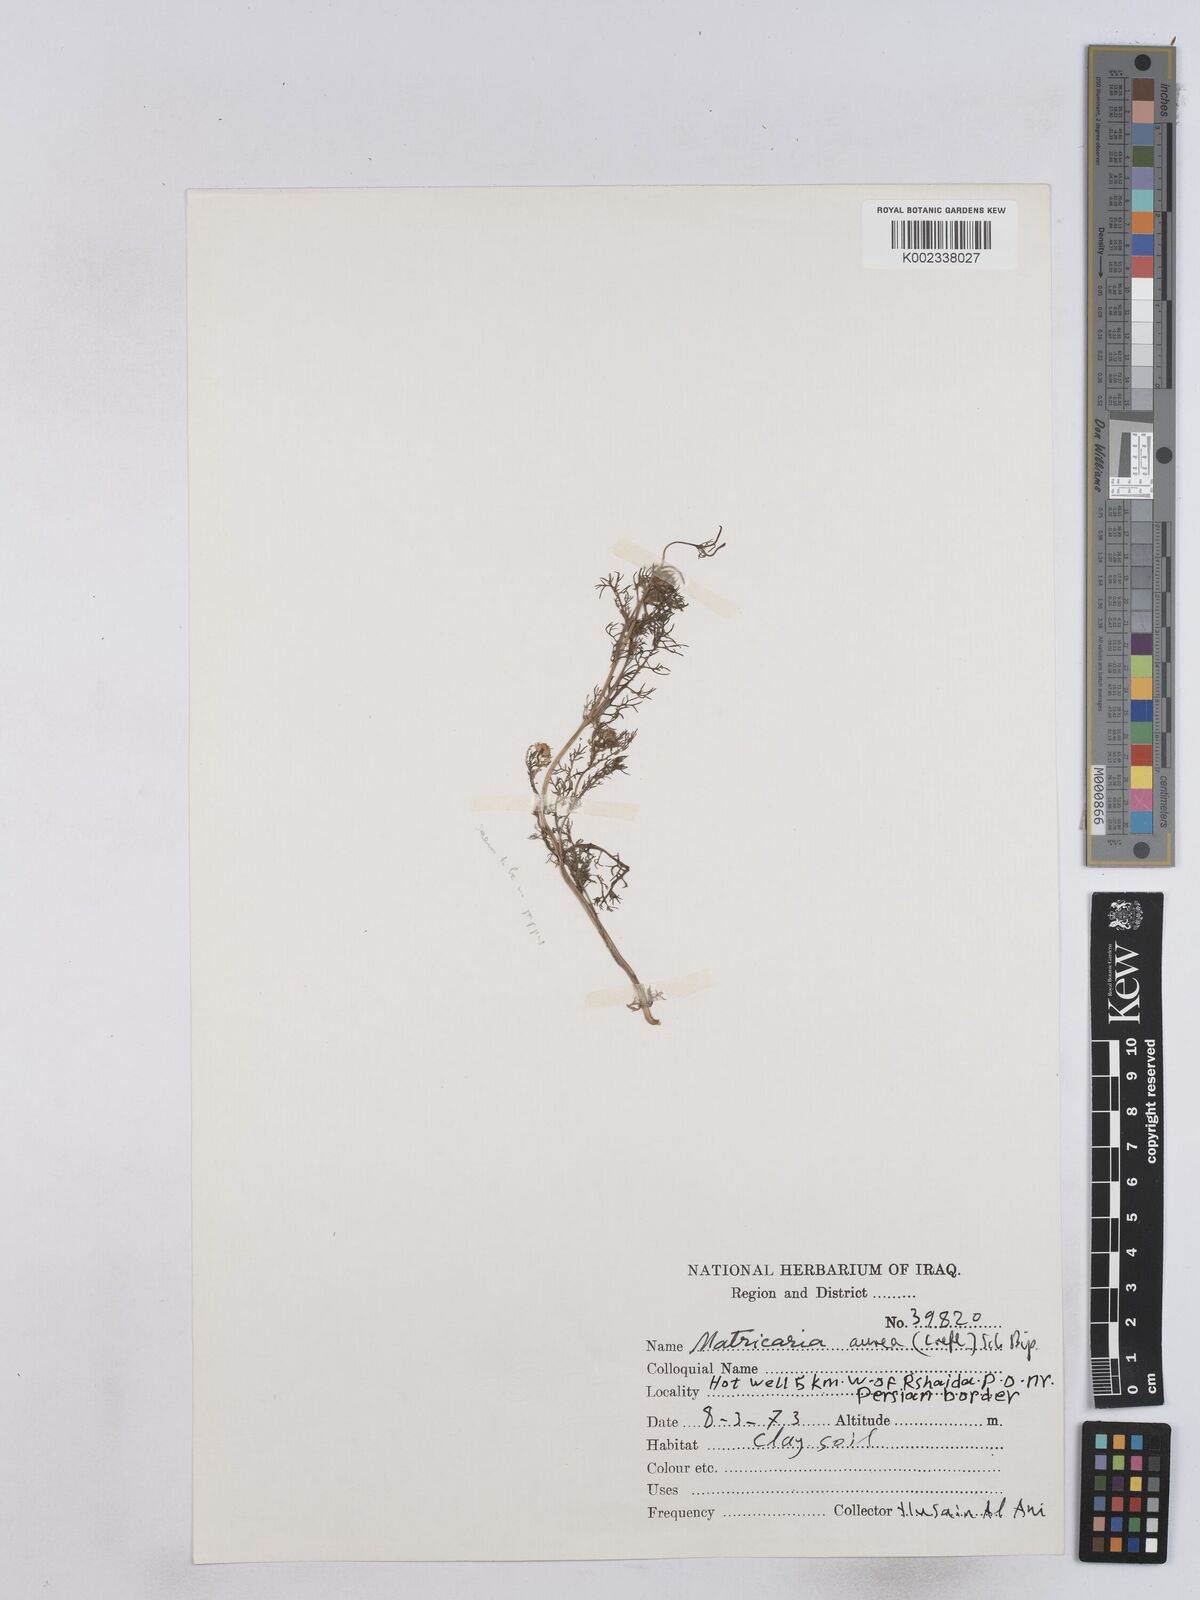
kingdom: Plantae
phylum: Tracheophyta
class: Magnoliopsida
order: Asterales
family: Asteraceae
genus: Matricaria
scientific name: Matricaria aurea
